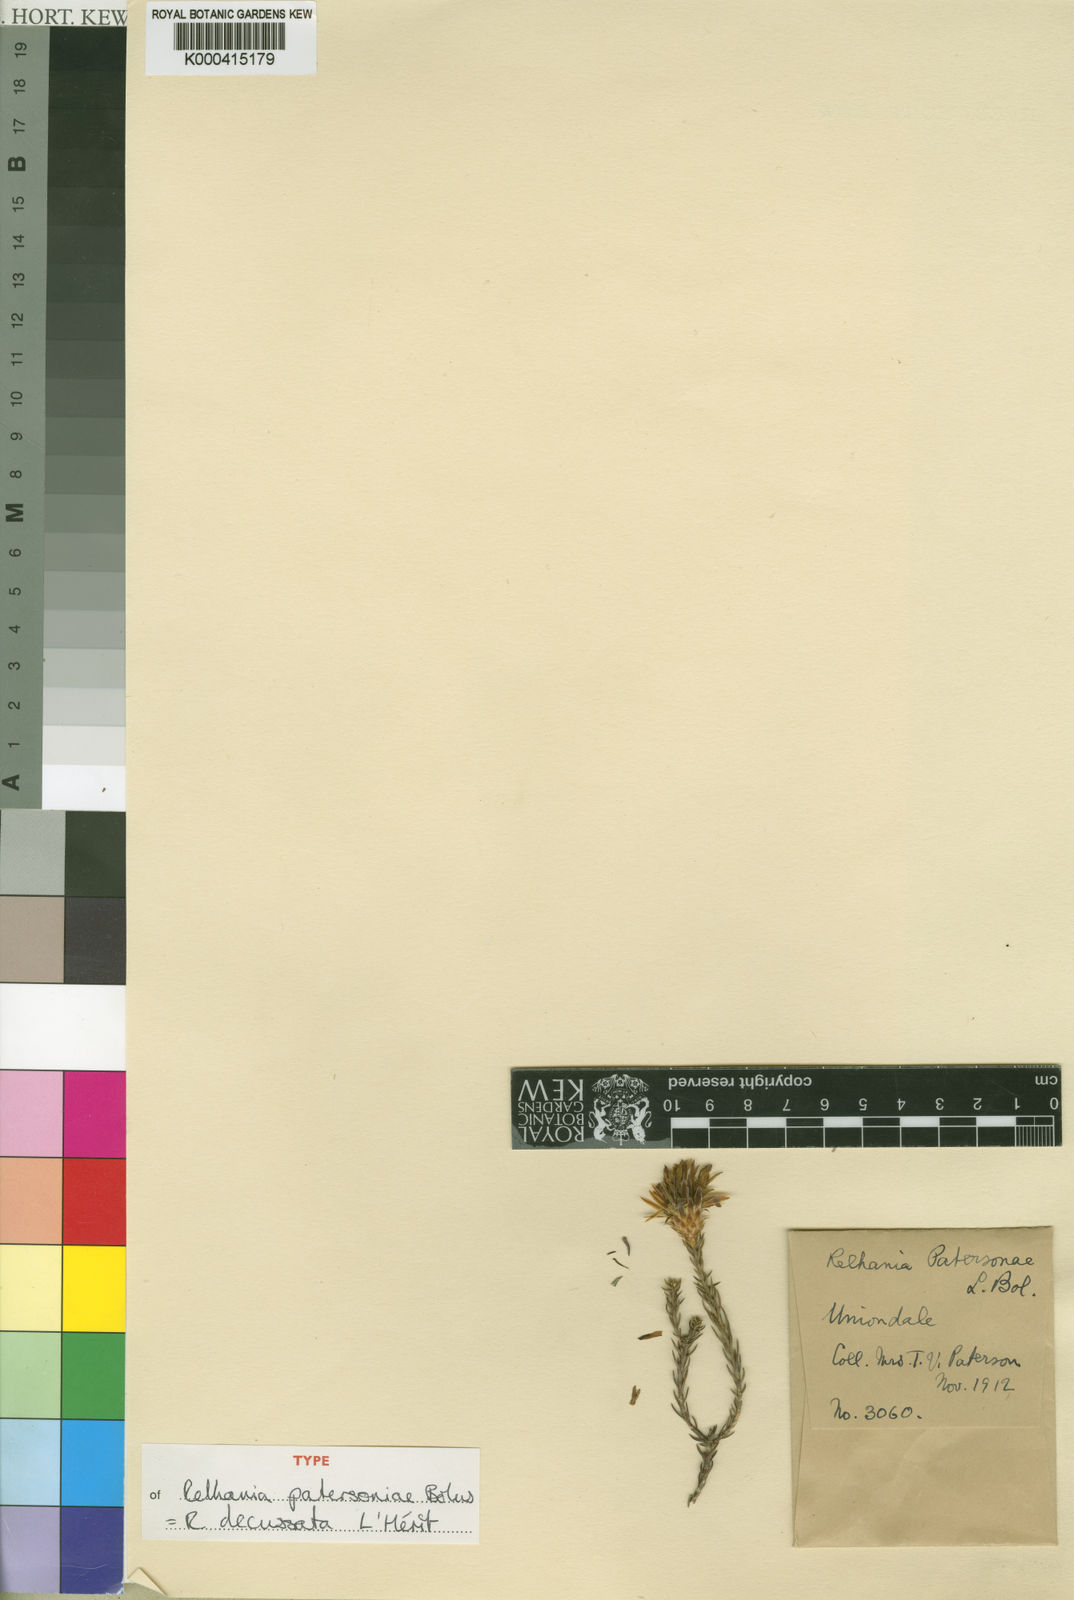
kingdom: Plantae
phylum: Tracheophyta
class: Magnoliopsida
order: Asterales
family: Asteraceae
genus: Oedera
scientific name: Oedera Relhania spec
